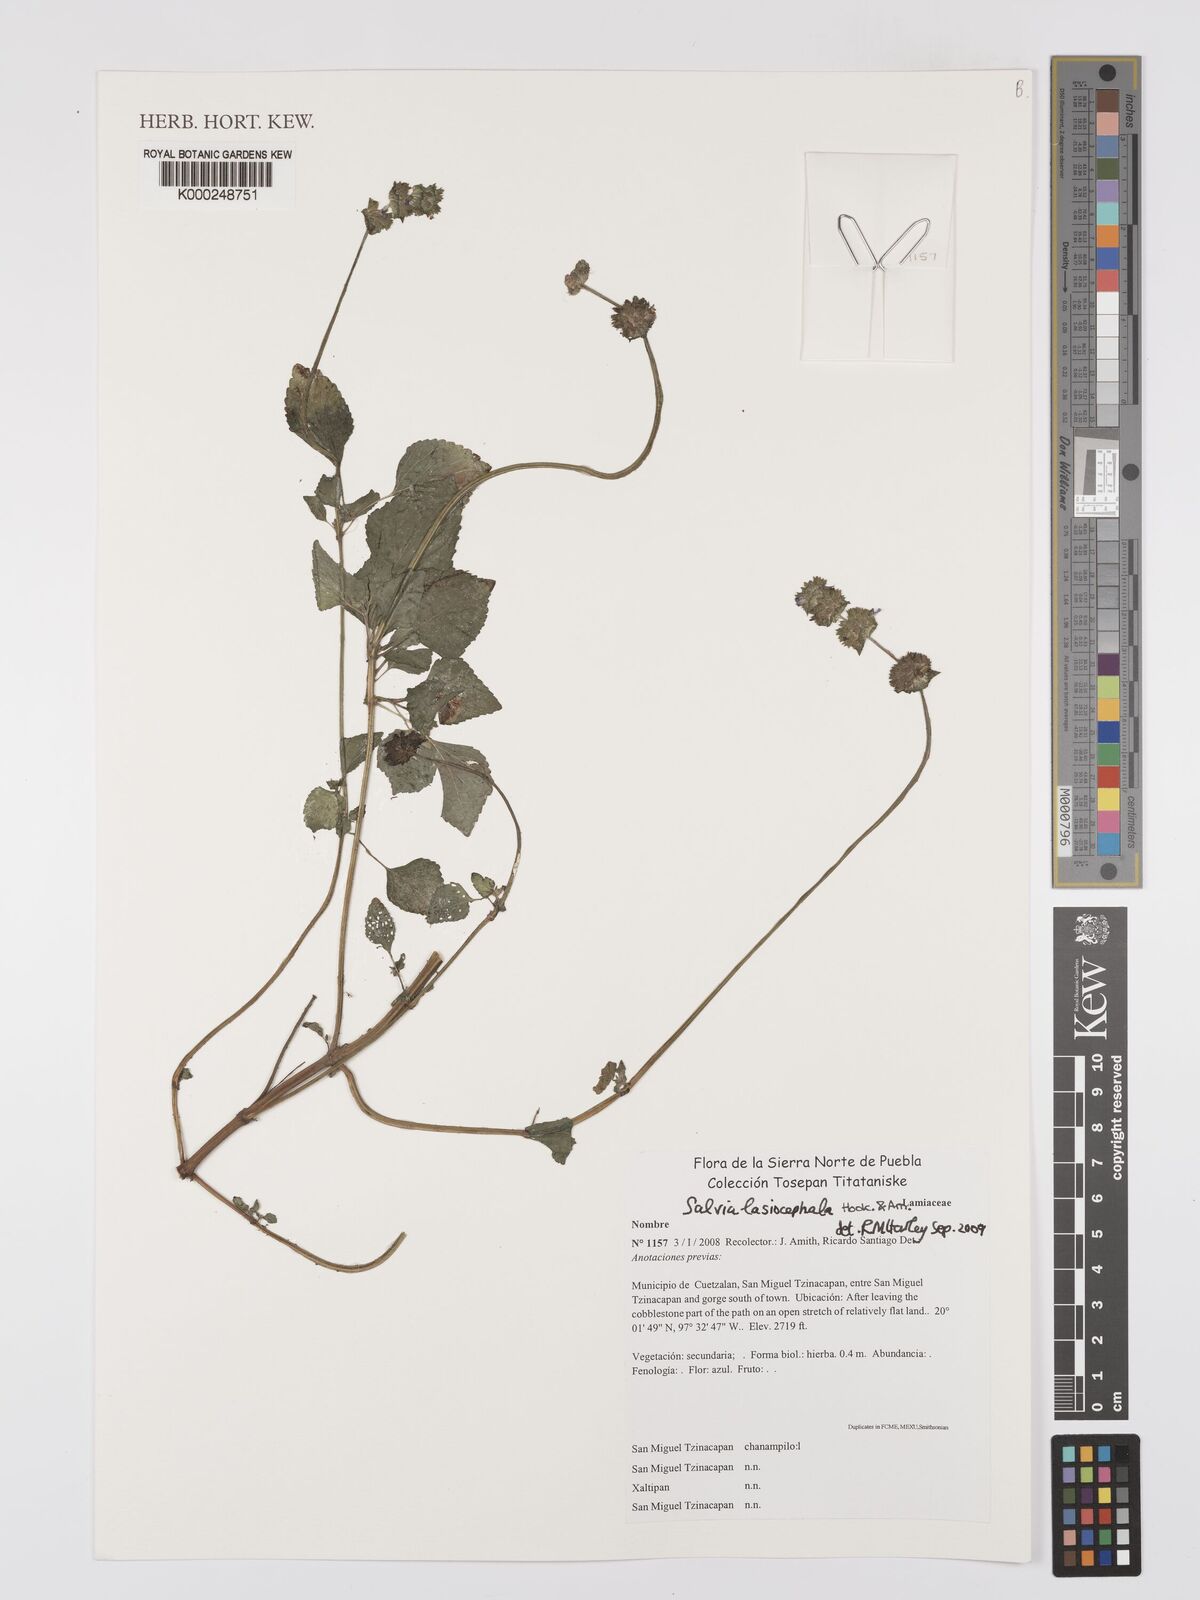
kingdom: Plantae
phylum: Tracheophyta
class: Magnoliopsida
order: Lamiales
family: Lamiaceae
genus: Salvia
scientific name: Salvia lasiocephala
